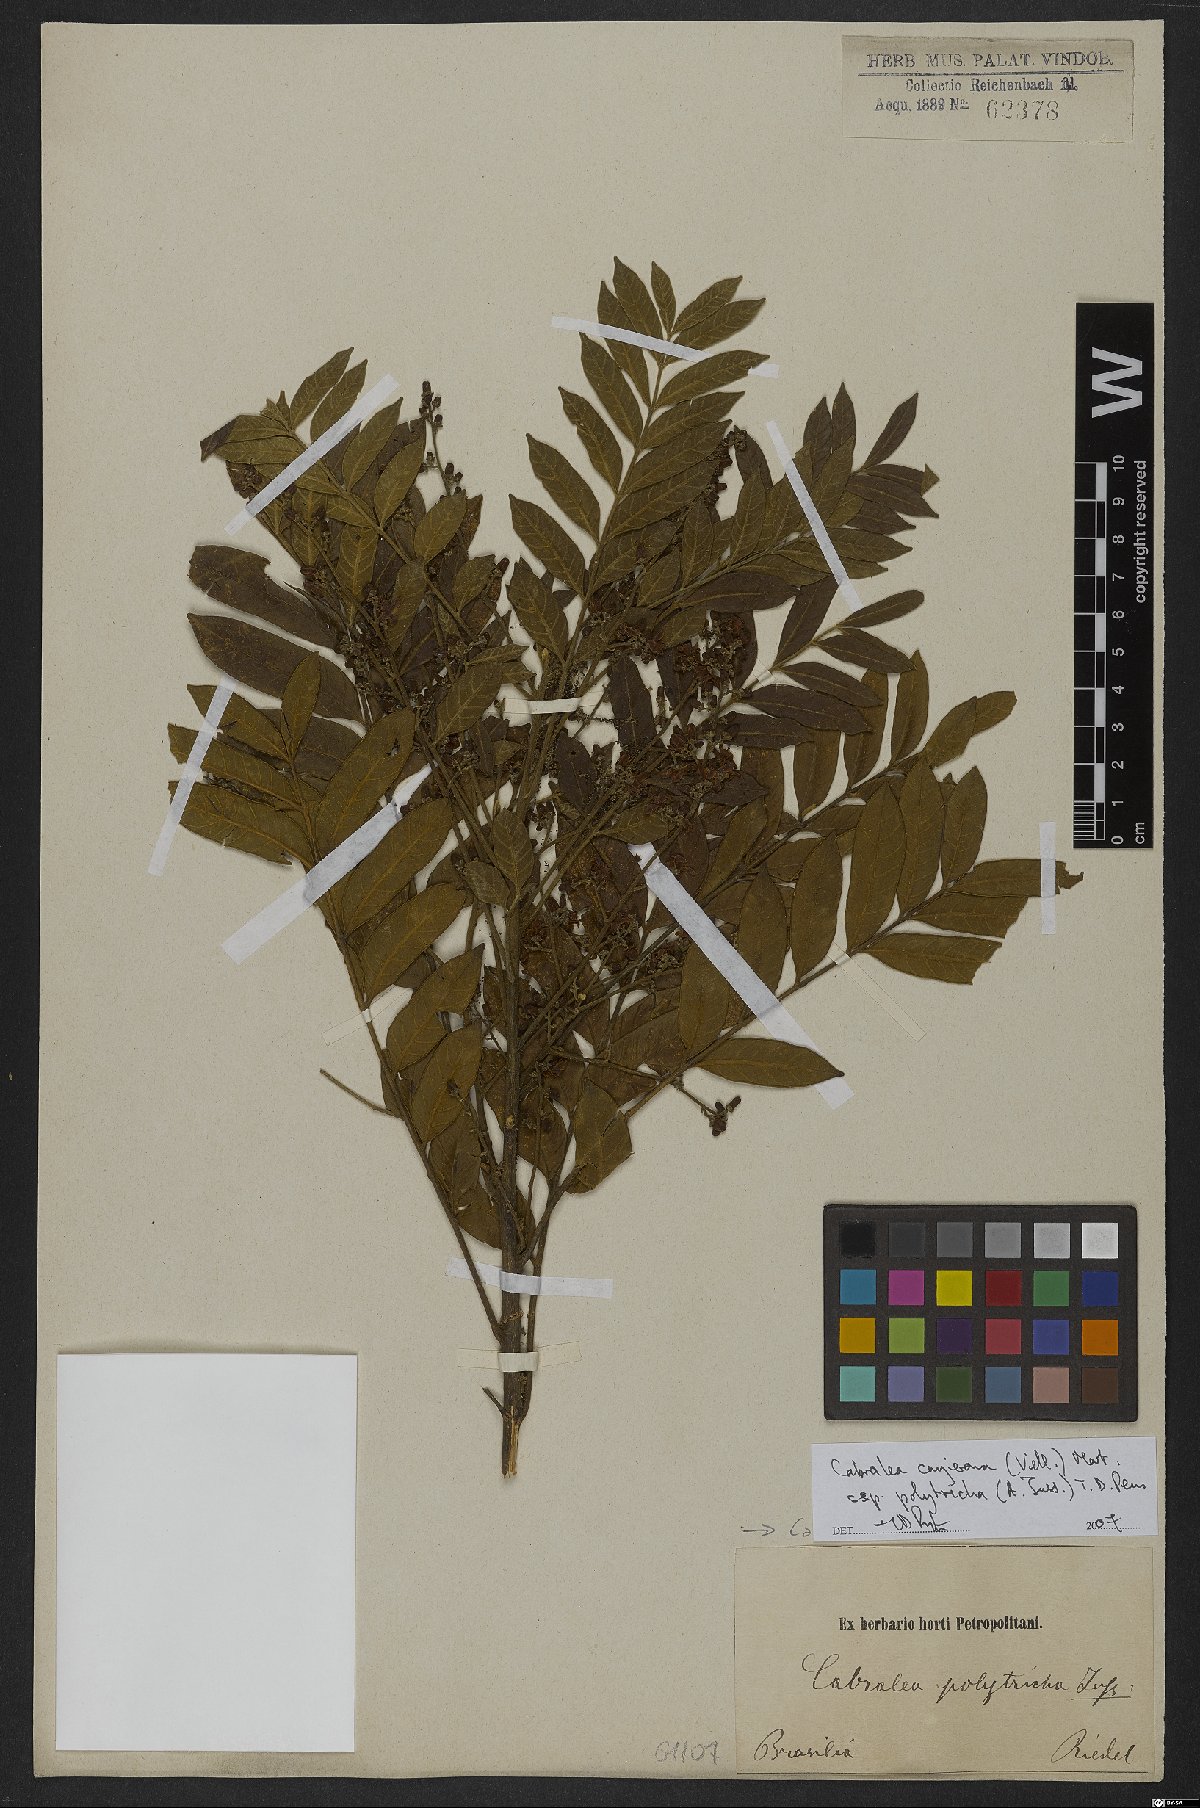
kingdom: Plantae
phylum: Tracheophyta
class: Magnoliopsida
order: Sapindales
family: Meliaceae
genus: Cabralea
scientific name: Cabralea canjerana
